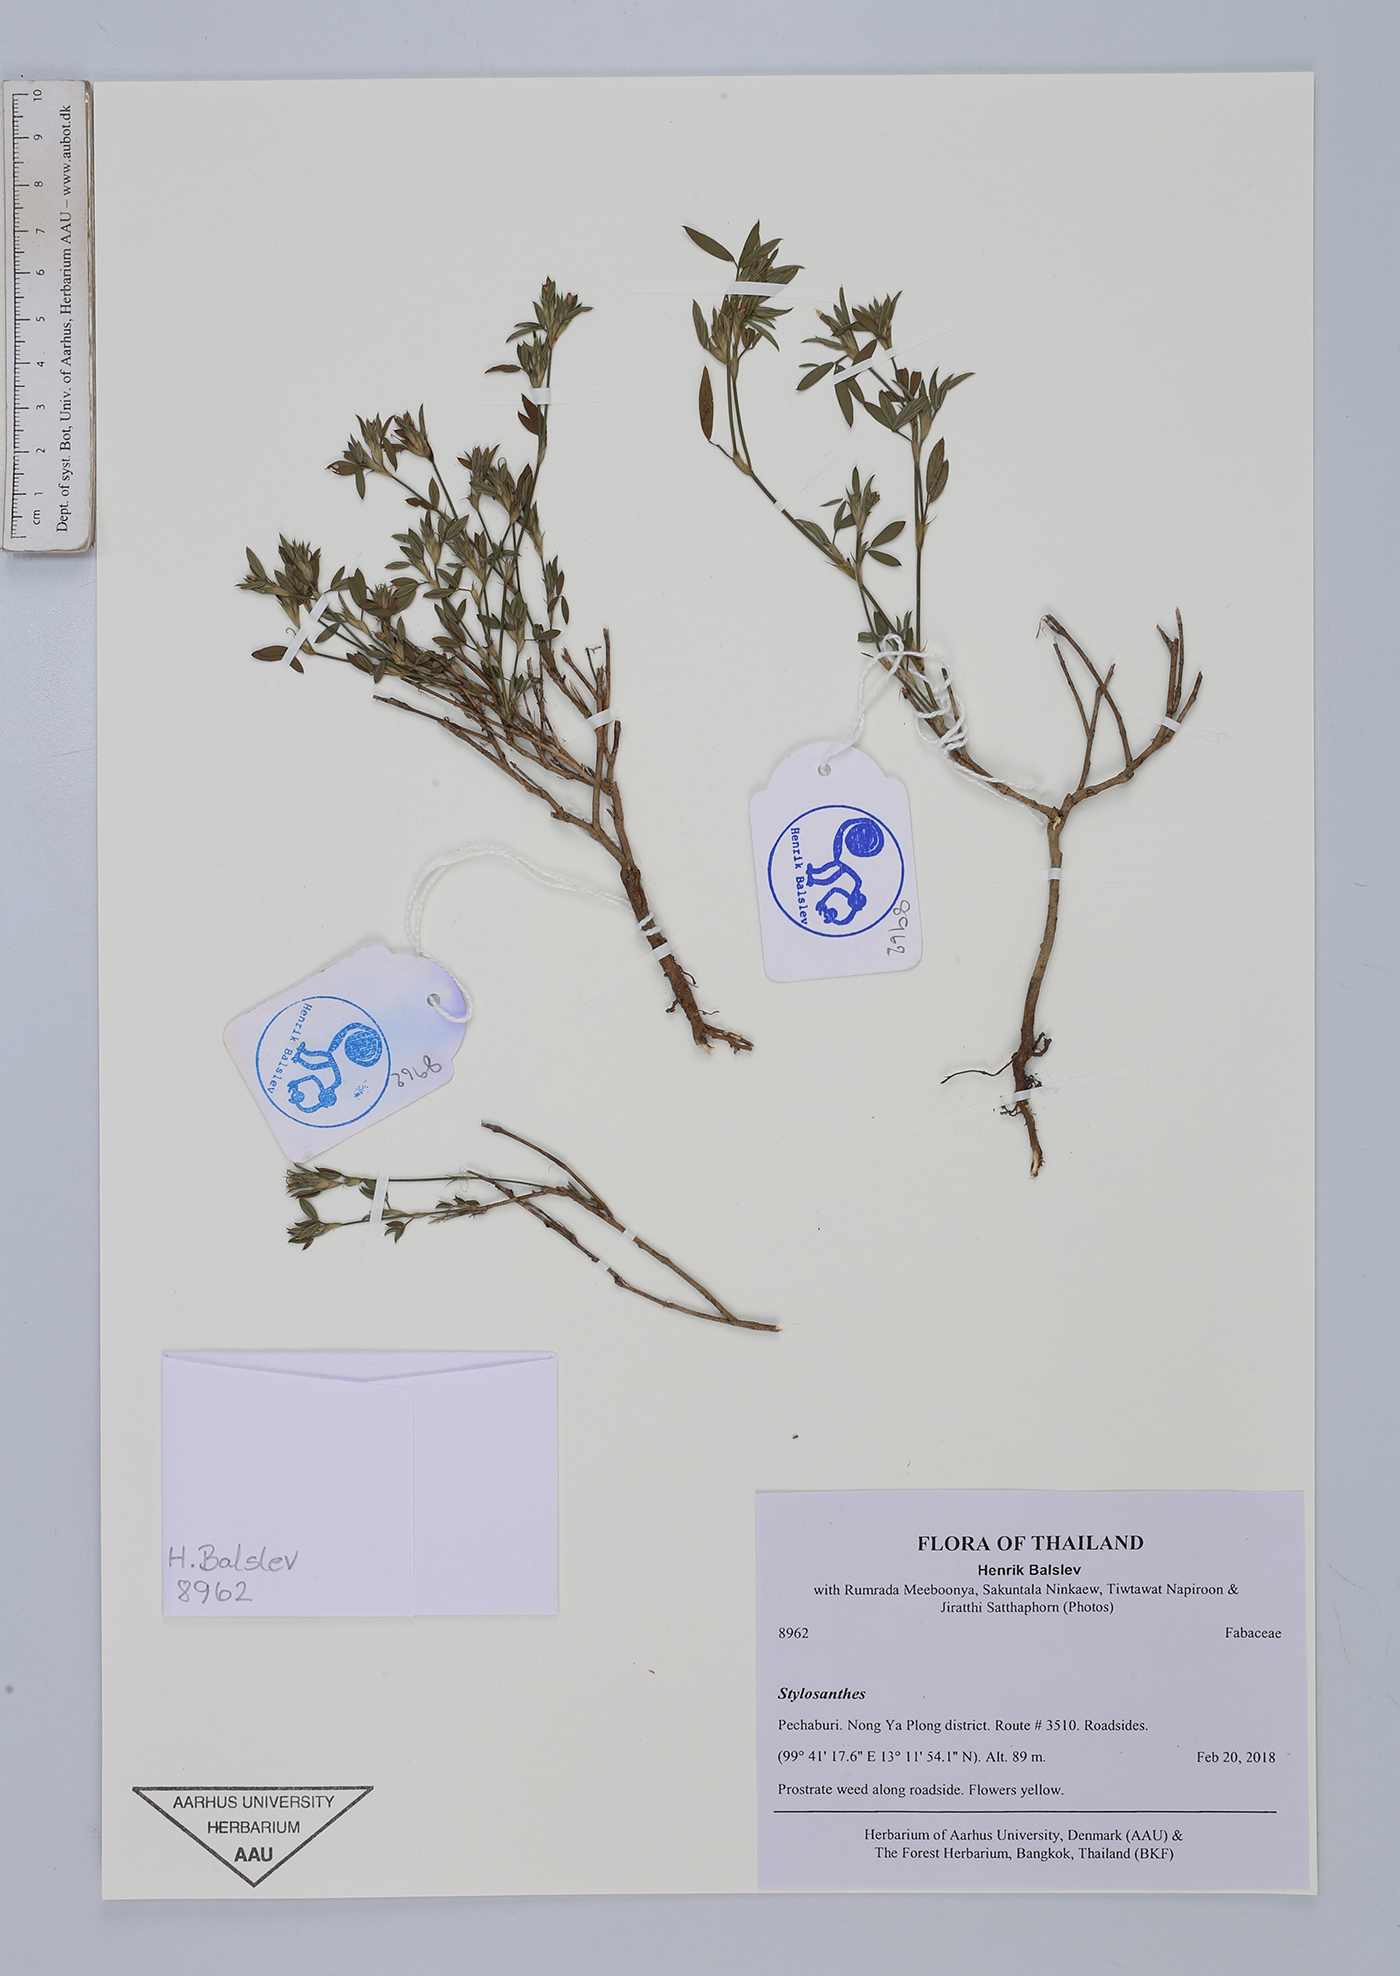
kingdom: Plantae
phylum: Tracheophyta
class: Magnoliopsida
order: Fabales
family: Fabaceae
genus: Stylosanthes
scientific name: Stylosanthes humilis
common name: Townsville stylo
